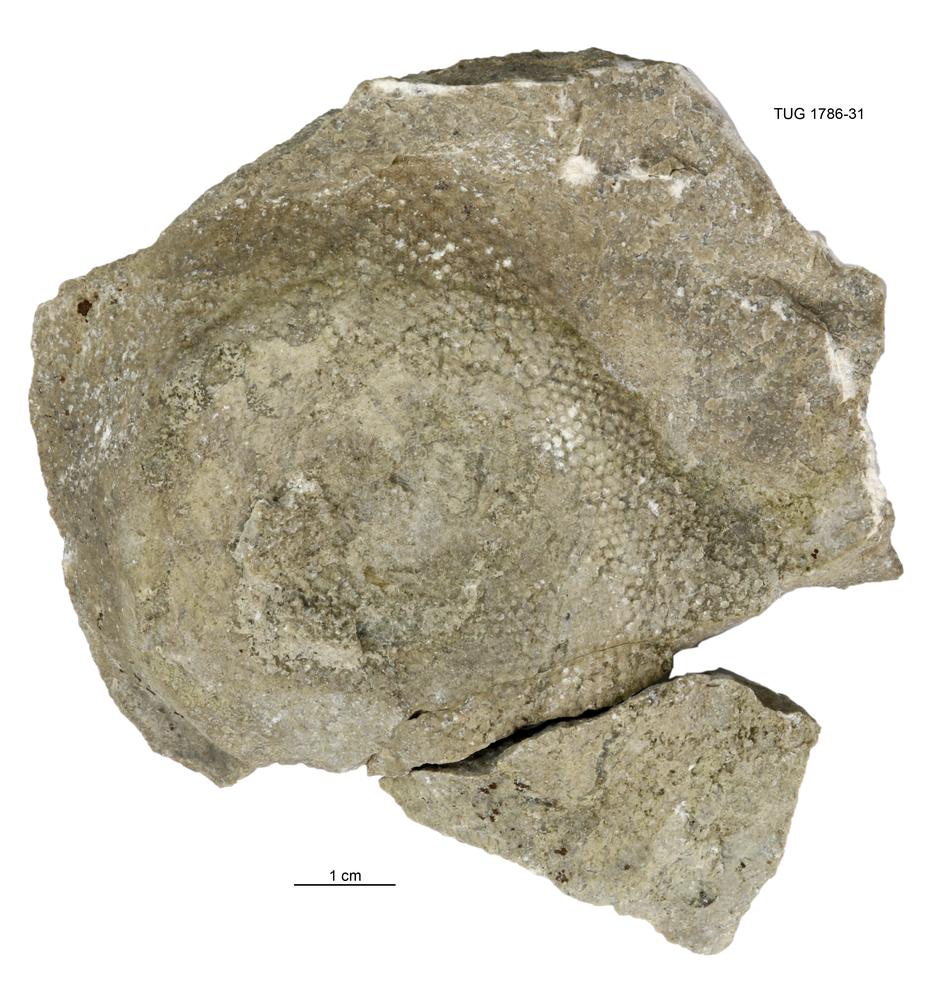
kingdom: Plantae
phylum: Chlorophyta
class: Chlorophyceae
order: Receptaculitales
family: Receptaculitaceae
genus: Receptaculites
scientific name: Receptaculites
